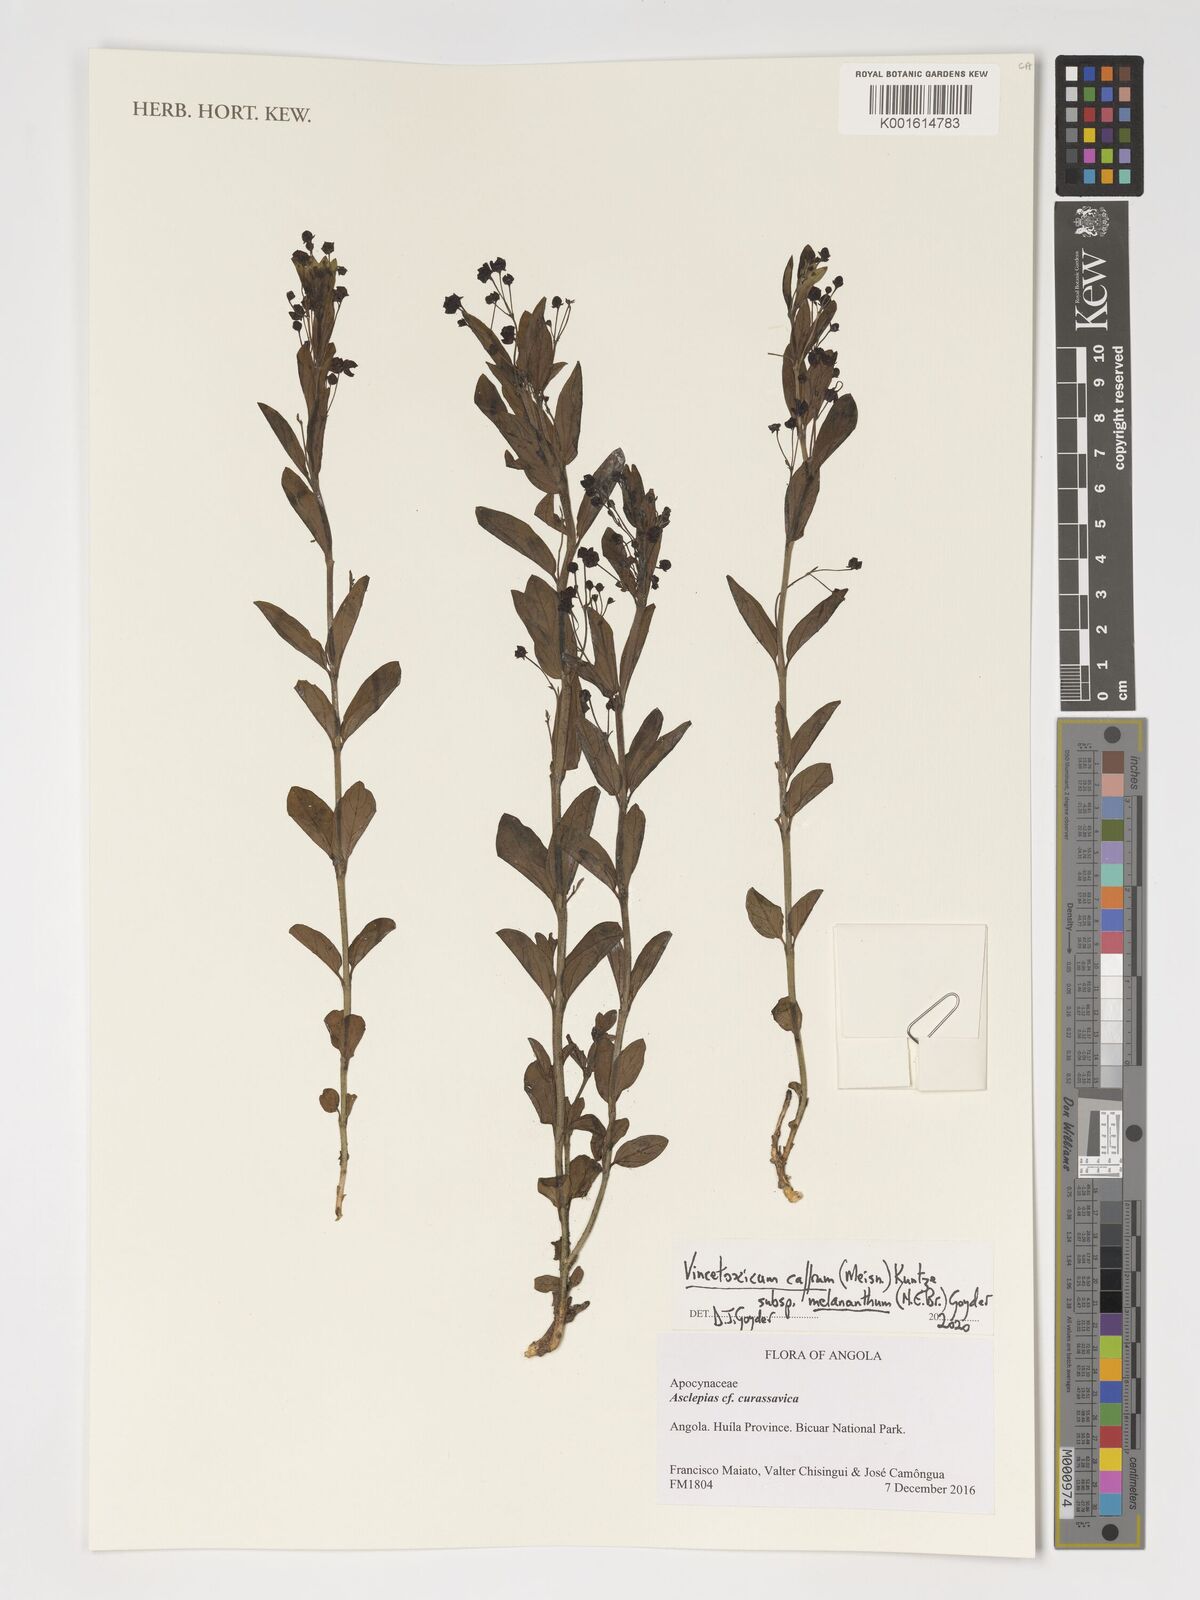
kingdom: Plantae
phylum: Tracheophyta
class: Magnoliopsida
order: Gentianales
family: Apocynaceae
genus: Vincetoxicum
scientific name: Vincetoxicum caffrum
